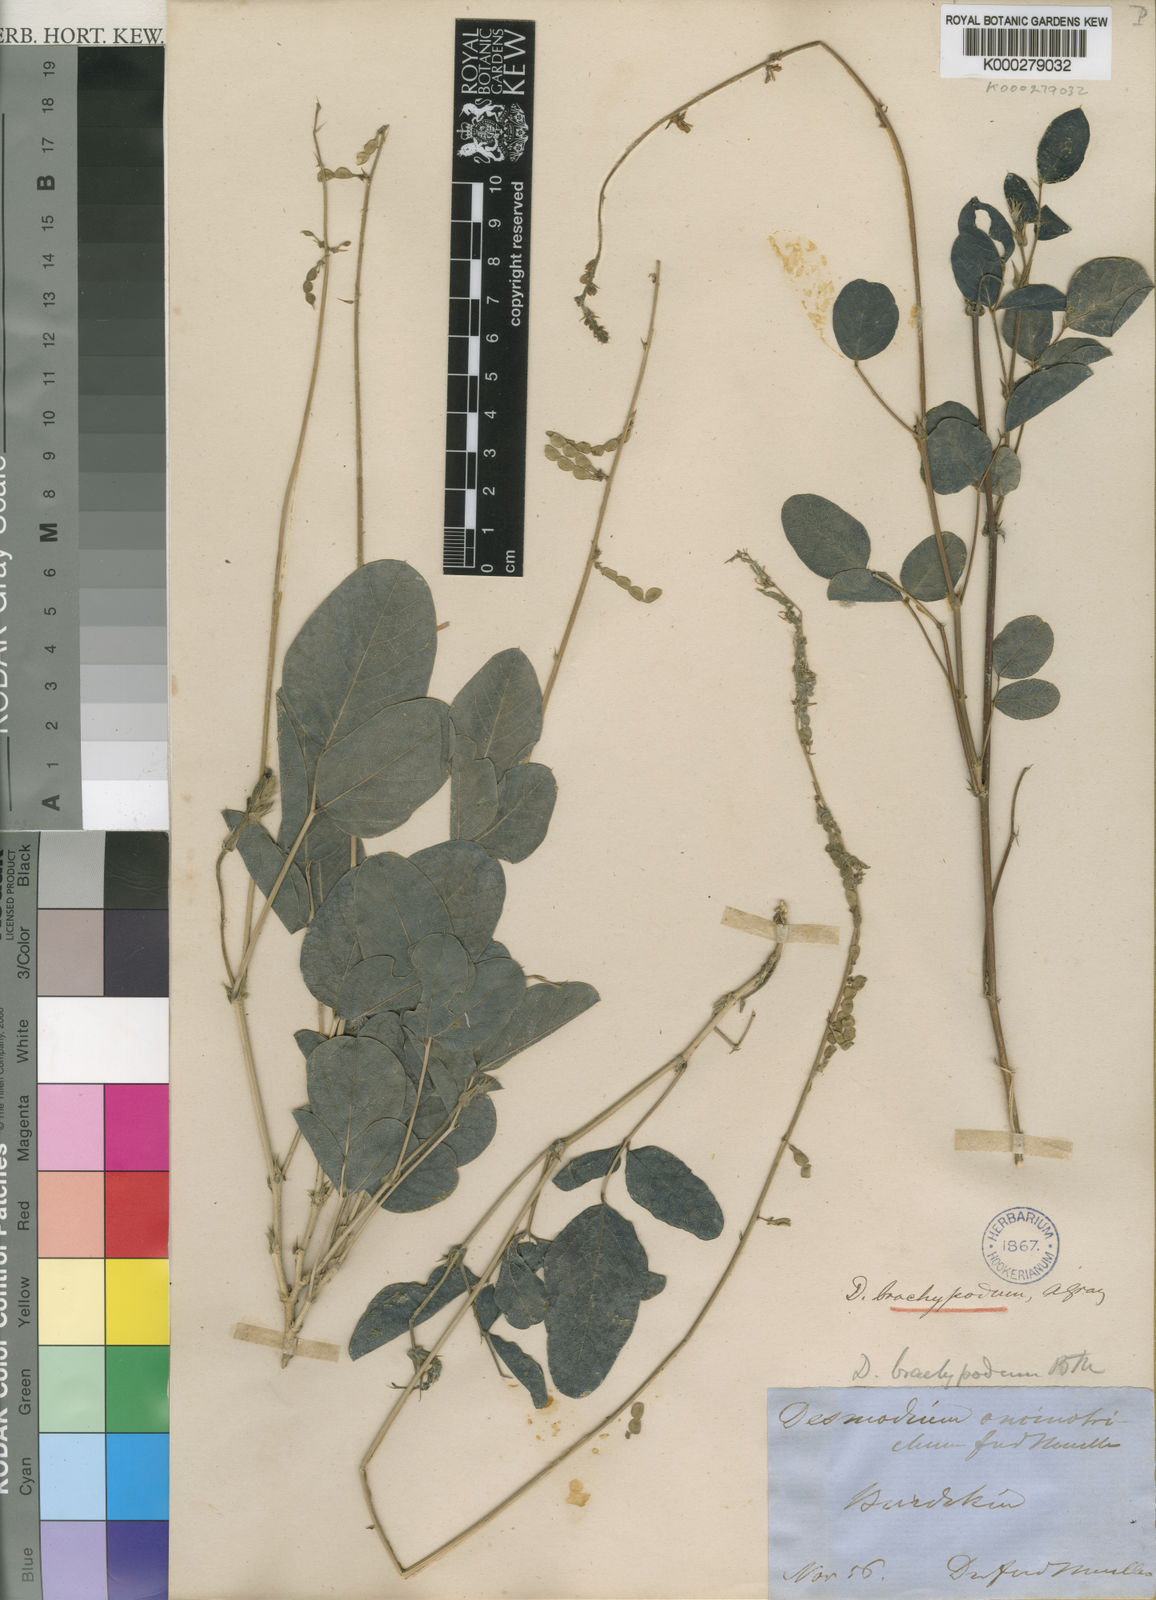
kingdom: Plantae
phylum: Tracheophyta
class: Magnoliopsida
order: Fabales
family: Fabaceae
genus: Oxytes
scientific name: Oxytes brachypoda
